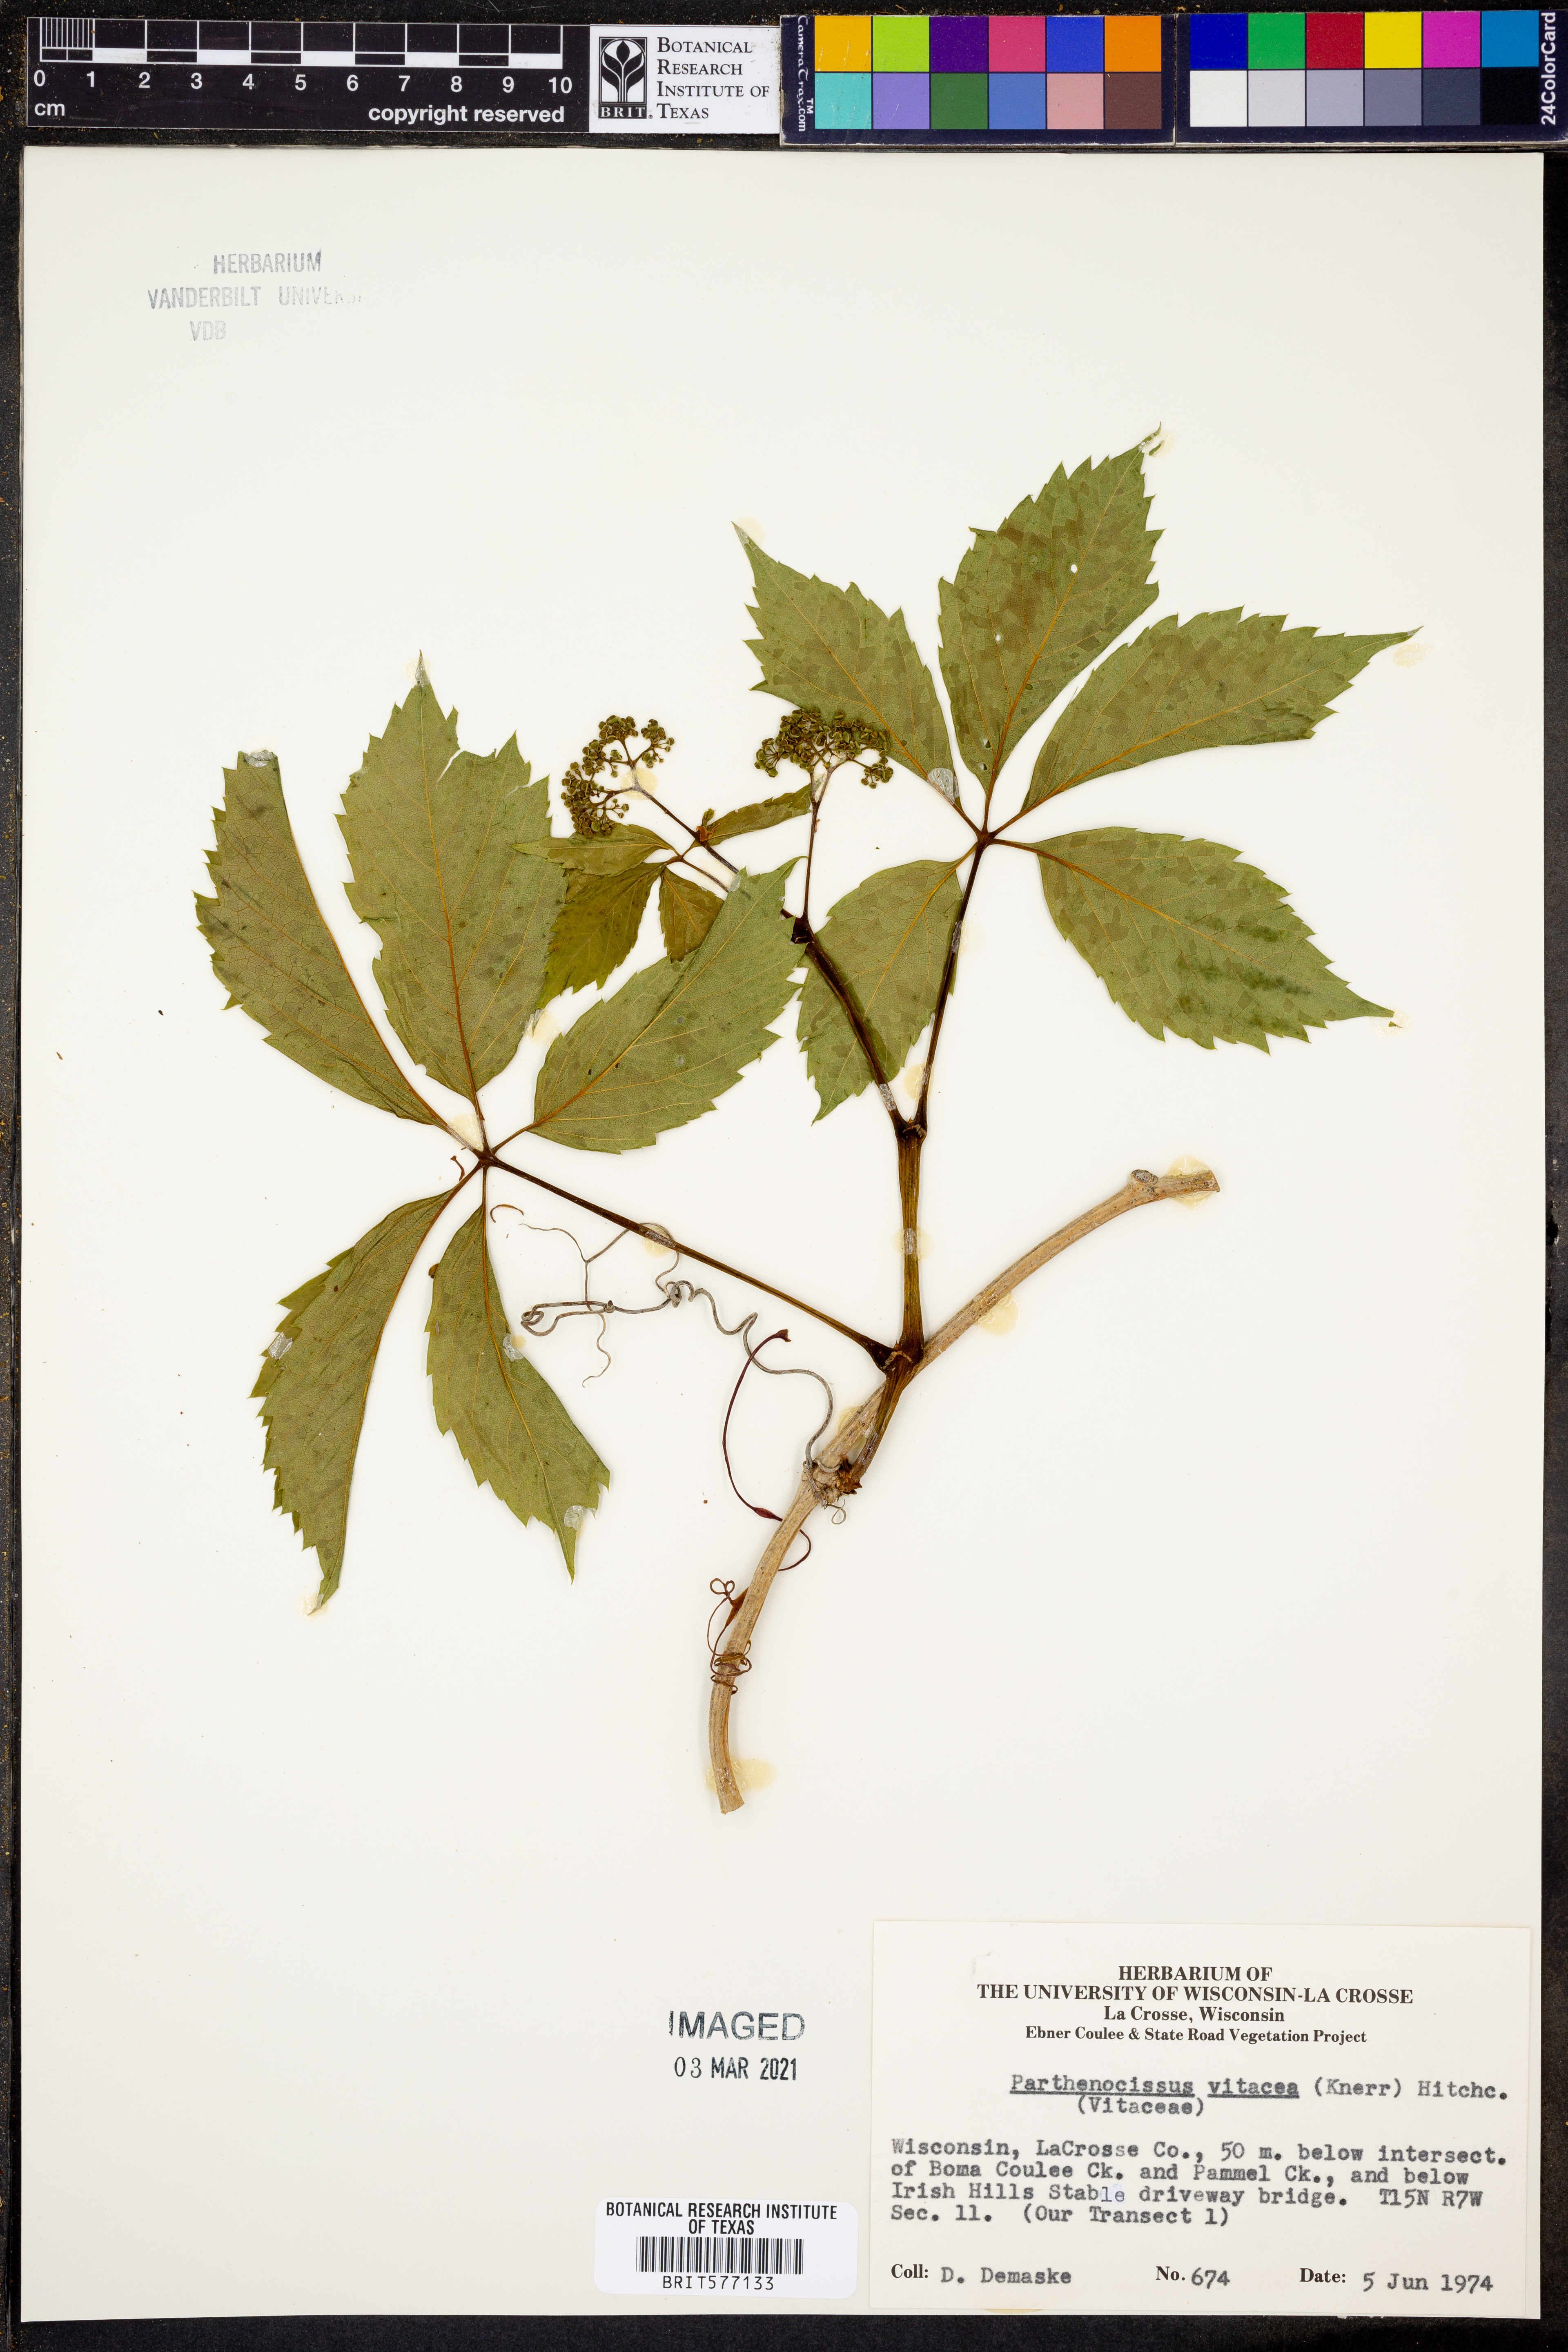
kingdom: Plantae
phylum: Tracheophyta
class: Magnoliopsida
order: Vitales
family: Vitaceae
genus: Parthenocissus
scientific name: Parthenocissus inserta
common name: False virginia-creeper
